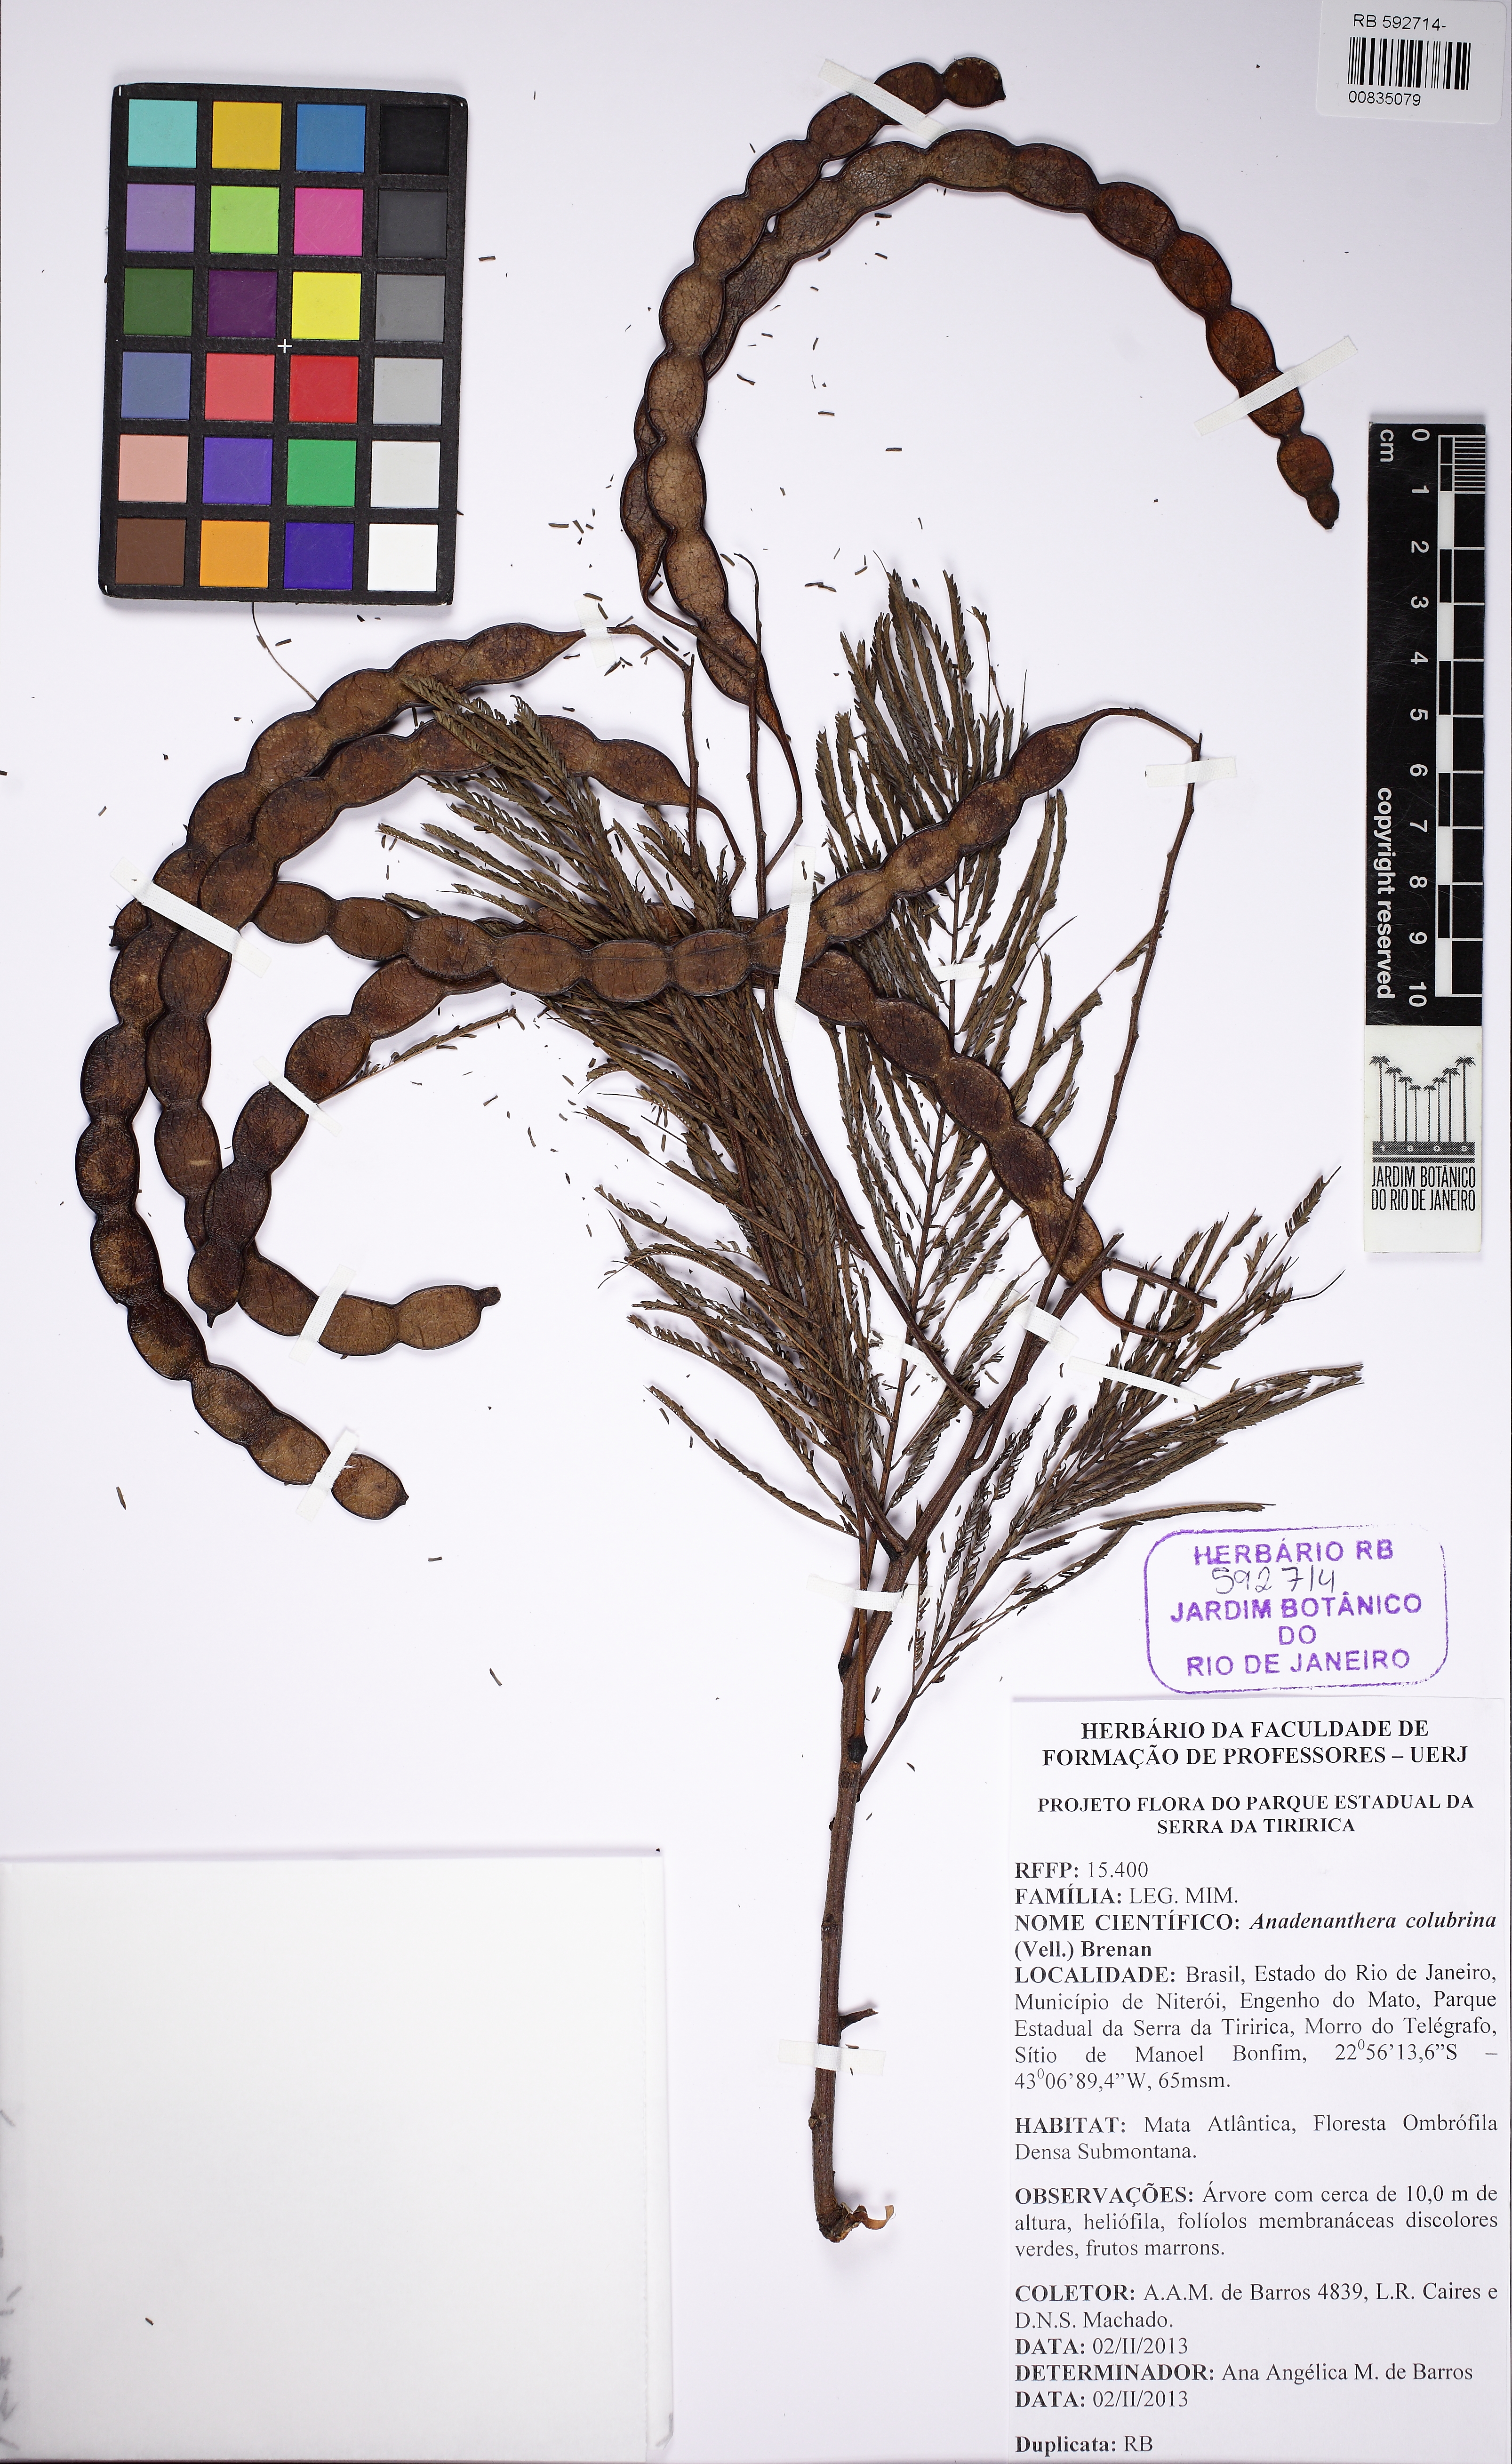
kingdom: Plantae
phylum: Tracheophyta
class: Magnoliopsida
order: Fabales
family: Fabaceae
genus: Anadenanthera
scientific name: Anadenanthera colubrina
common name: Curupay
